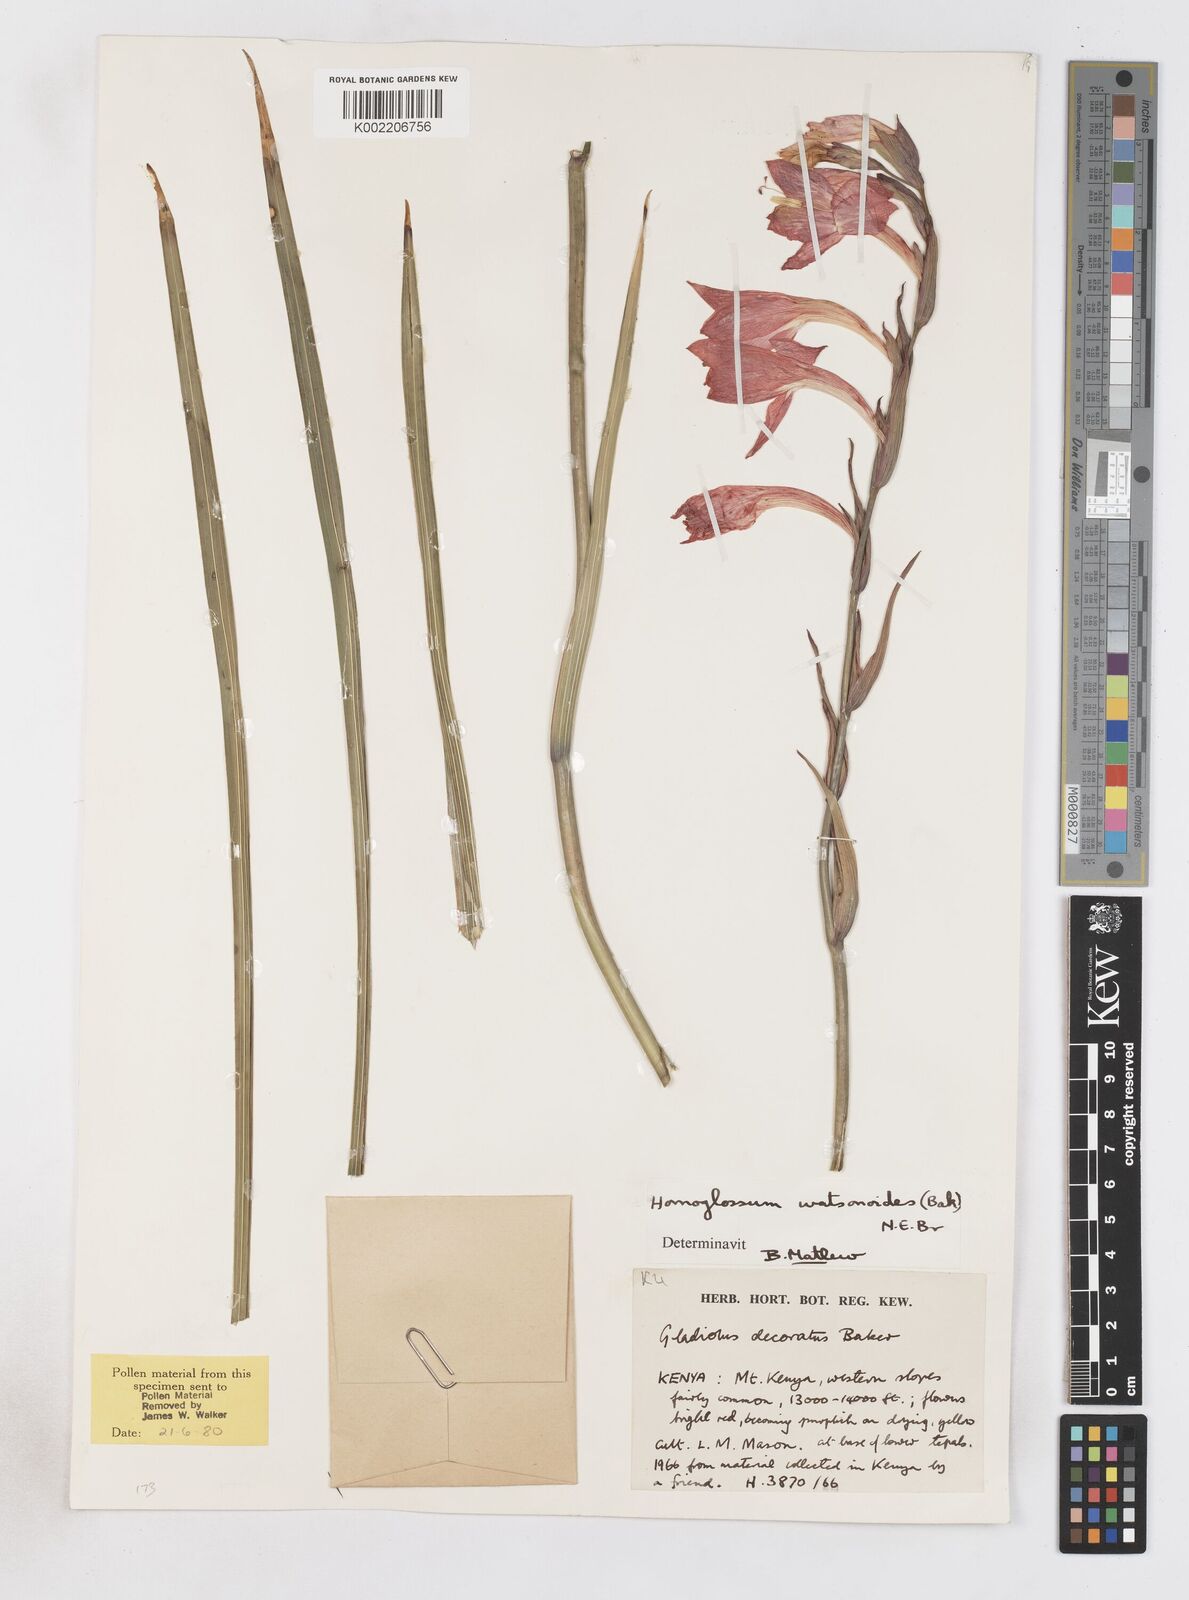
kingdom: Plantae
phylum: Tracheophyta
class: Liliopsida
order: Asparagales
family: Iridaceae
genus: Gladiolus
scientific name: Gladiolus watsonioides
